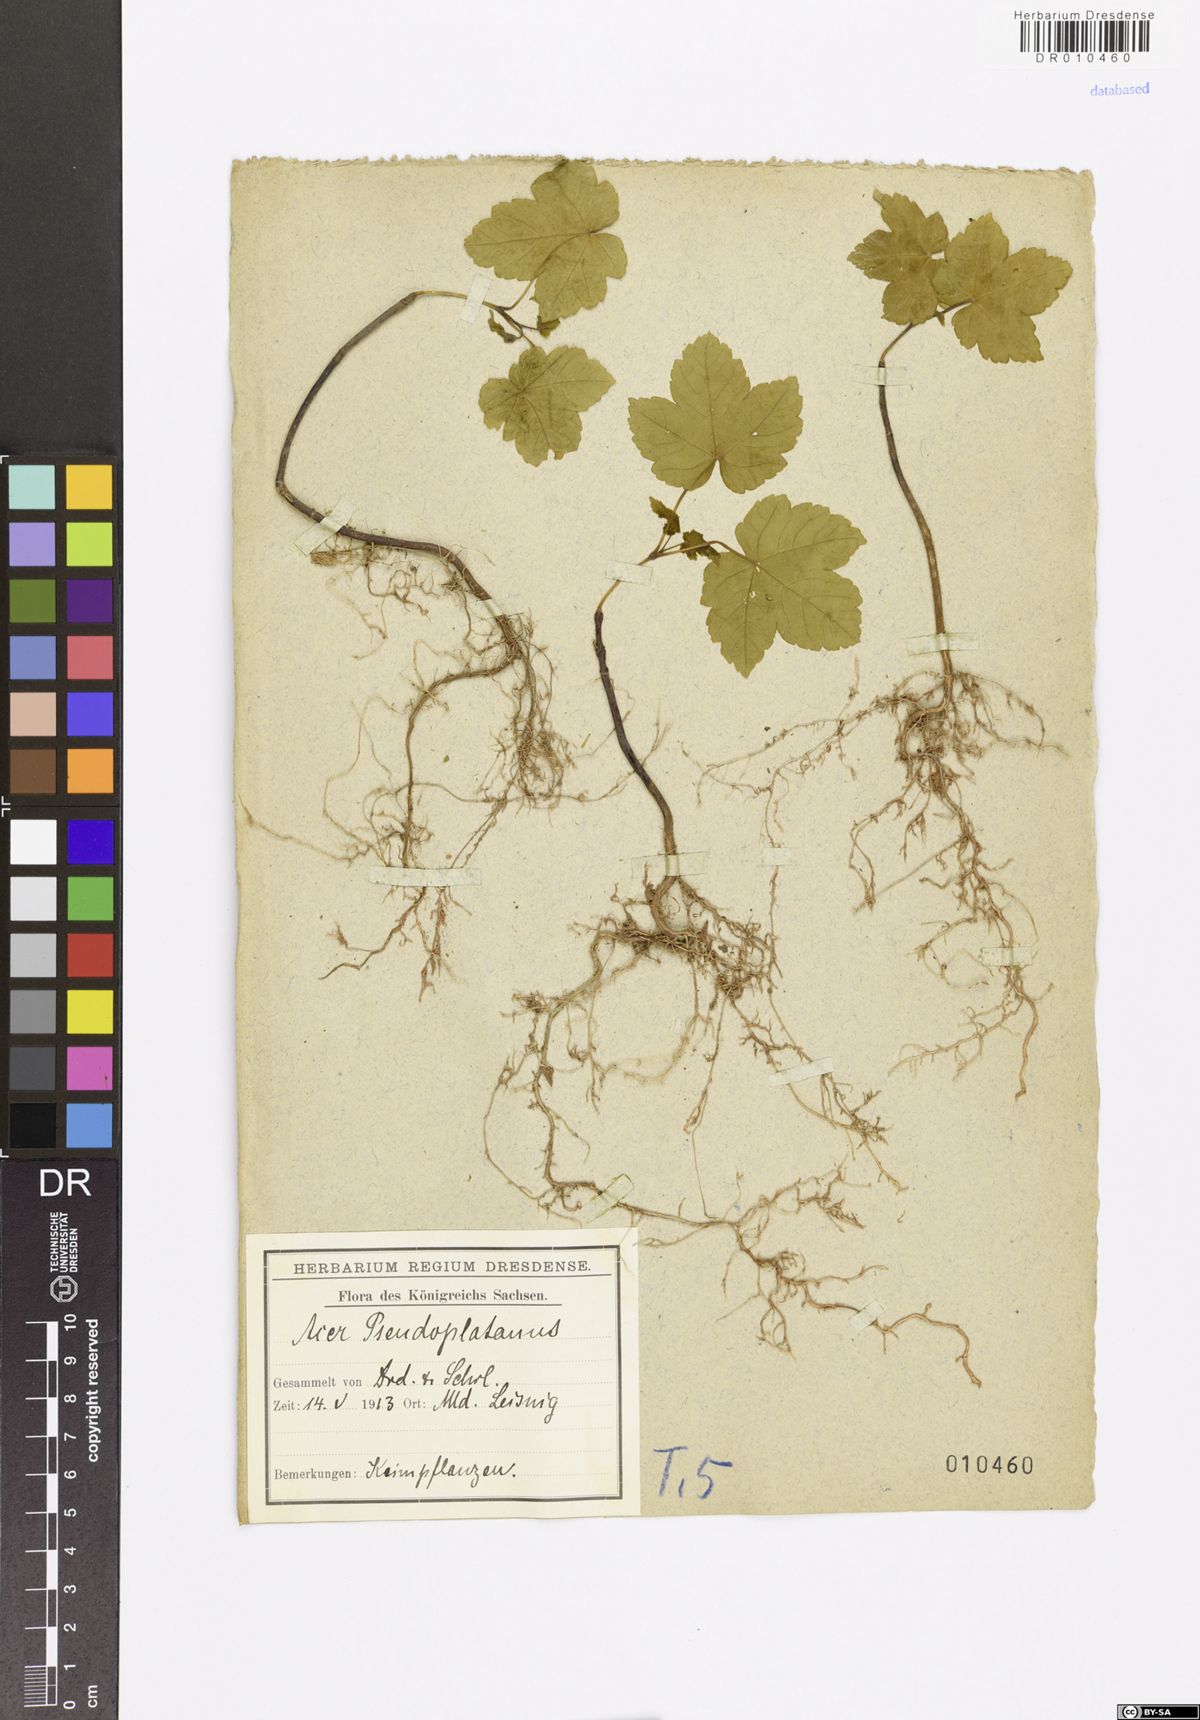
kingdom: Plantae
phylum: Tracheophyta
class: Magnoliopsida
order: Sapindales
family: Sapindaceae
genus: Acer
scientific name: Acer pseudoplatanus
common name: Sycamore
